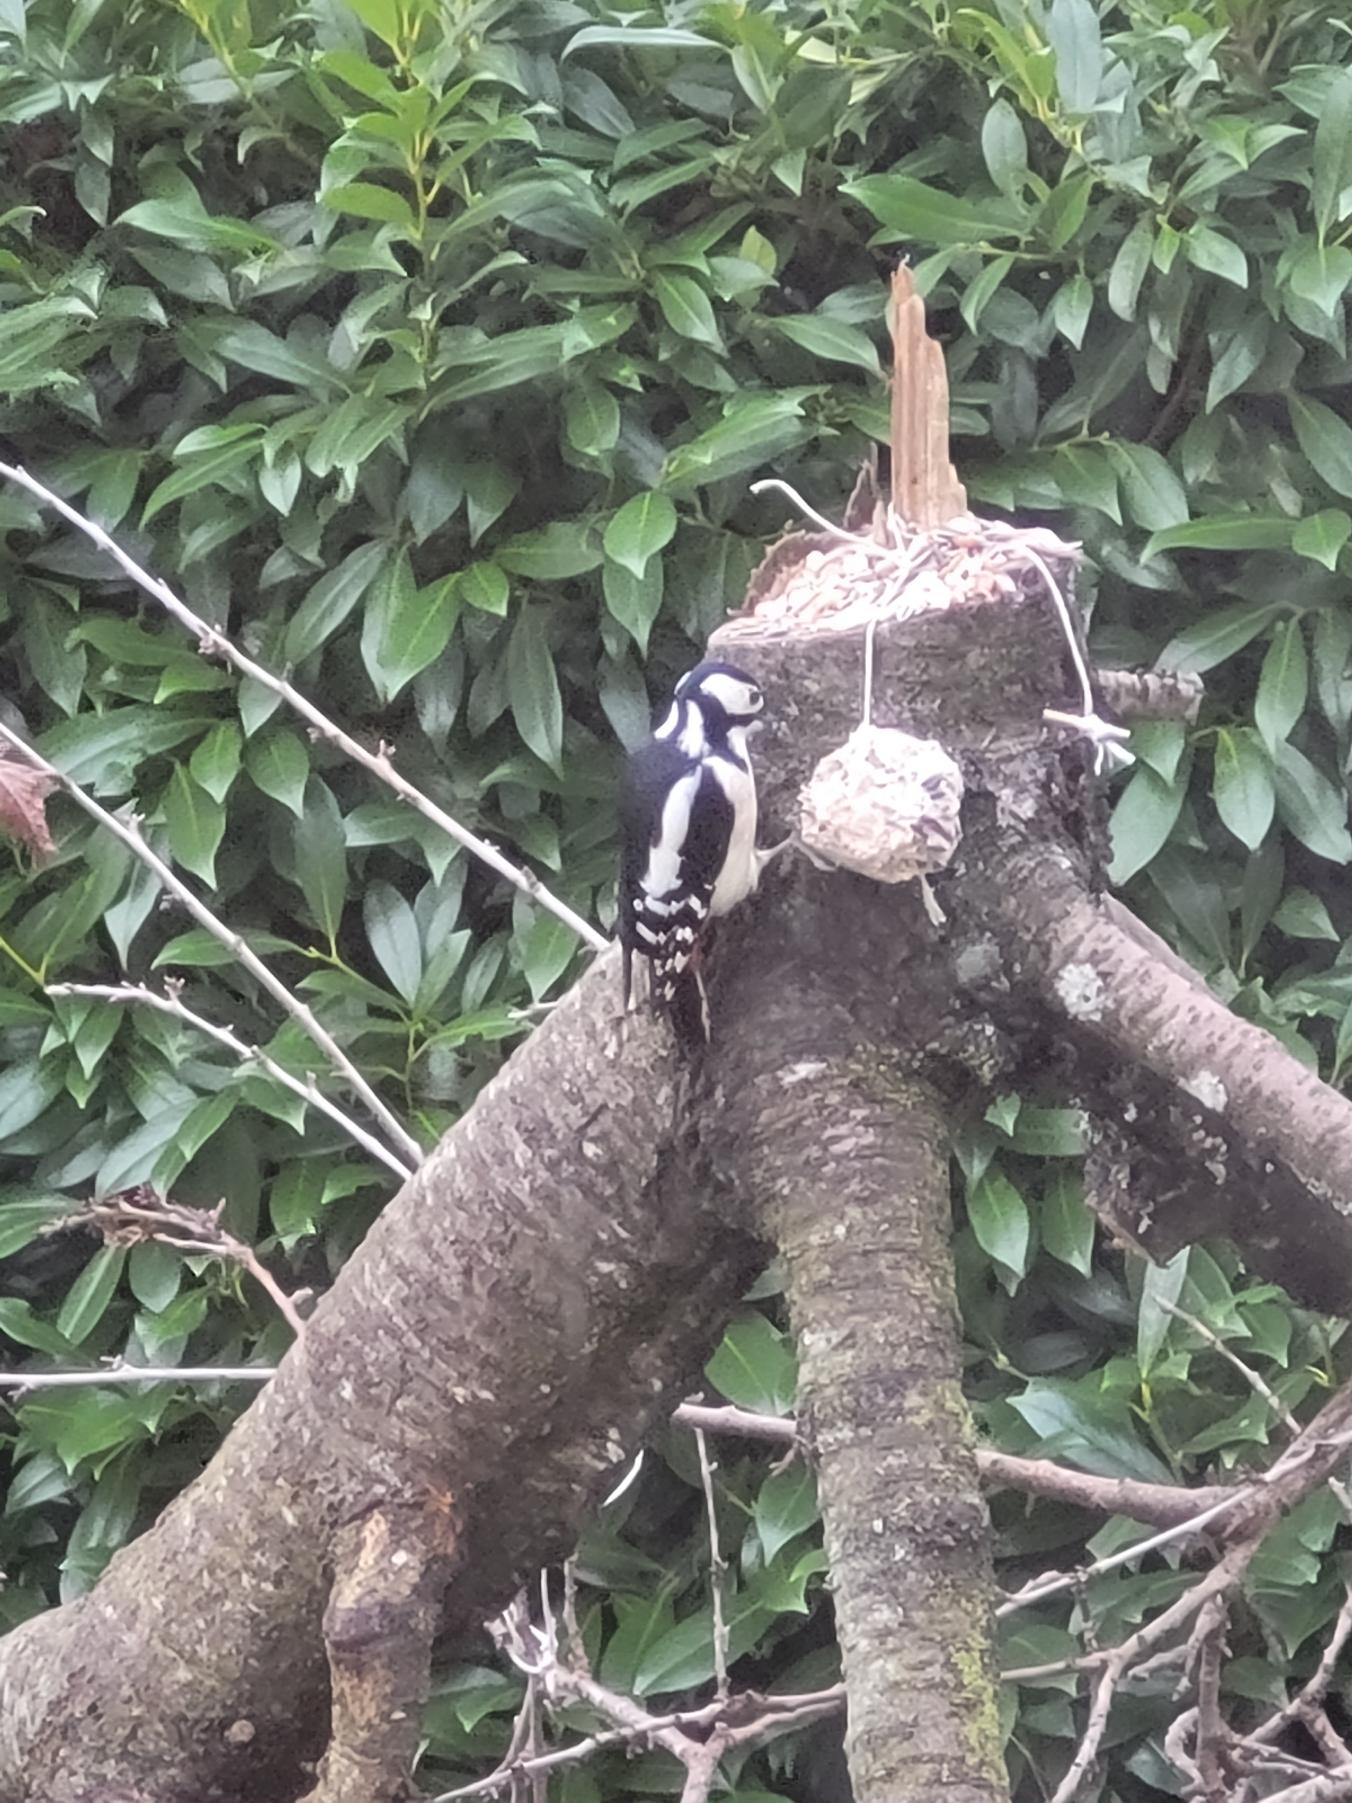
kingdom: Animalia
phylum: Chordata
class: Aves
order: Piciformes
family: Picidae
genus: Dendrocopos
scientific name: Dendrocopos major
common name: Stor flagspætte
